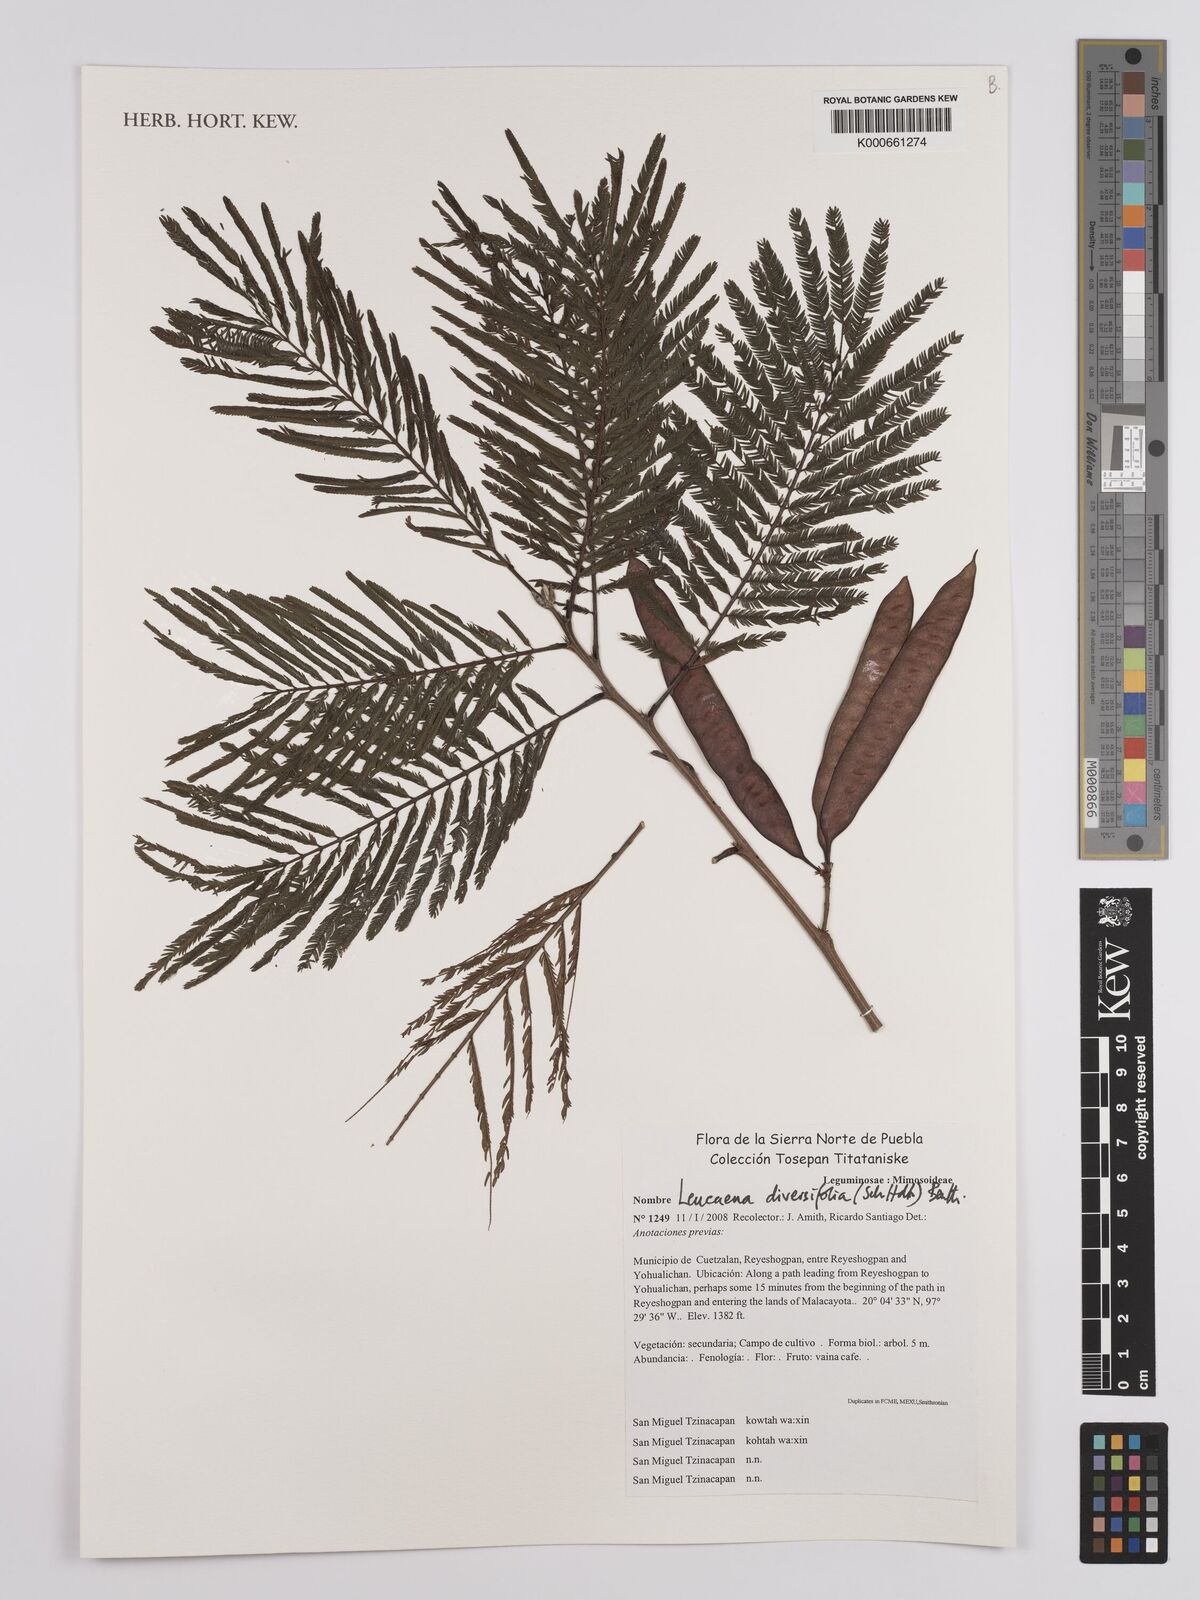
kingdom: Plantae
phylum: Tracheophyta
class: Magnoliopsida
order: Fabales
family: Fabaceae
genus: Leucaena
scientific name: Leucaena diversifolia
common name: Red leucaena
